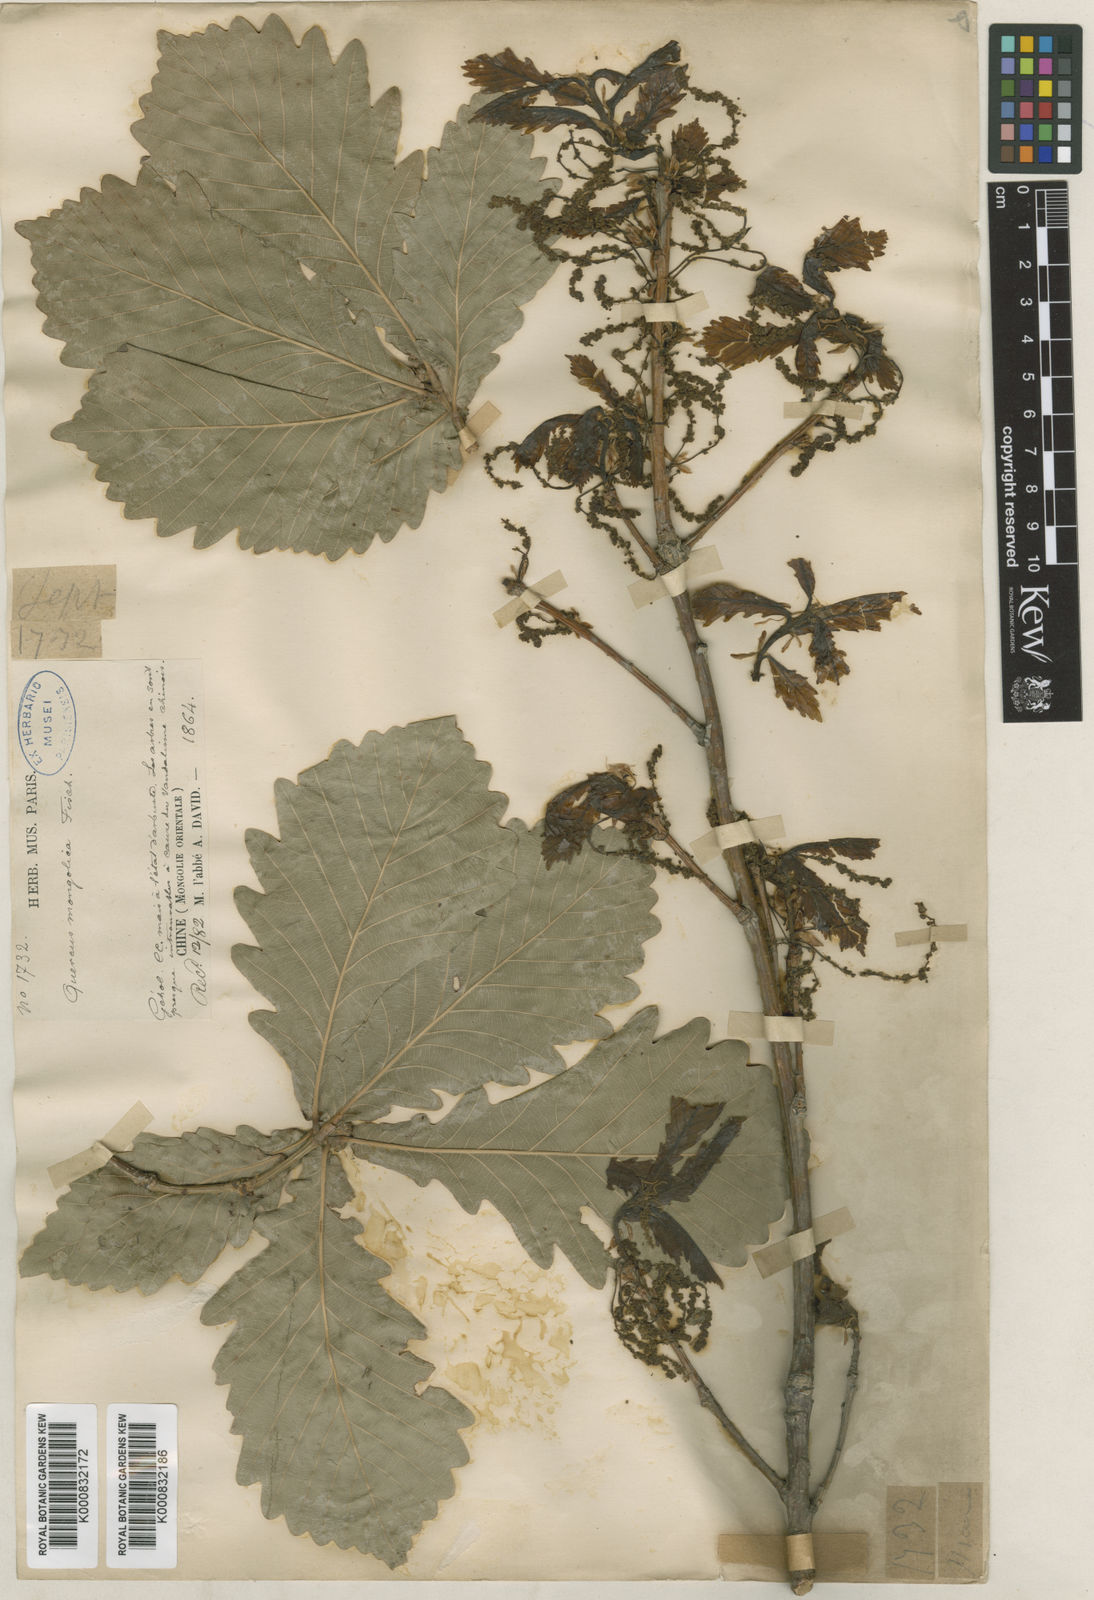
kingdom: Plantae
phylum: Tracheophyta
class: Magnoliopsida
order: Fagales
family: Fagaceae
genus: Quercus
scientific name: Quercus mongolica
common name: Mongolian oak
